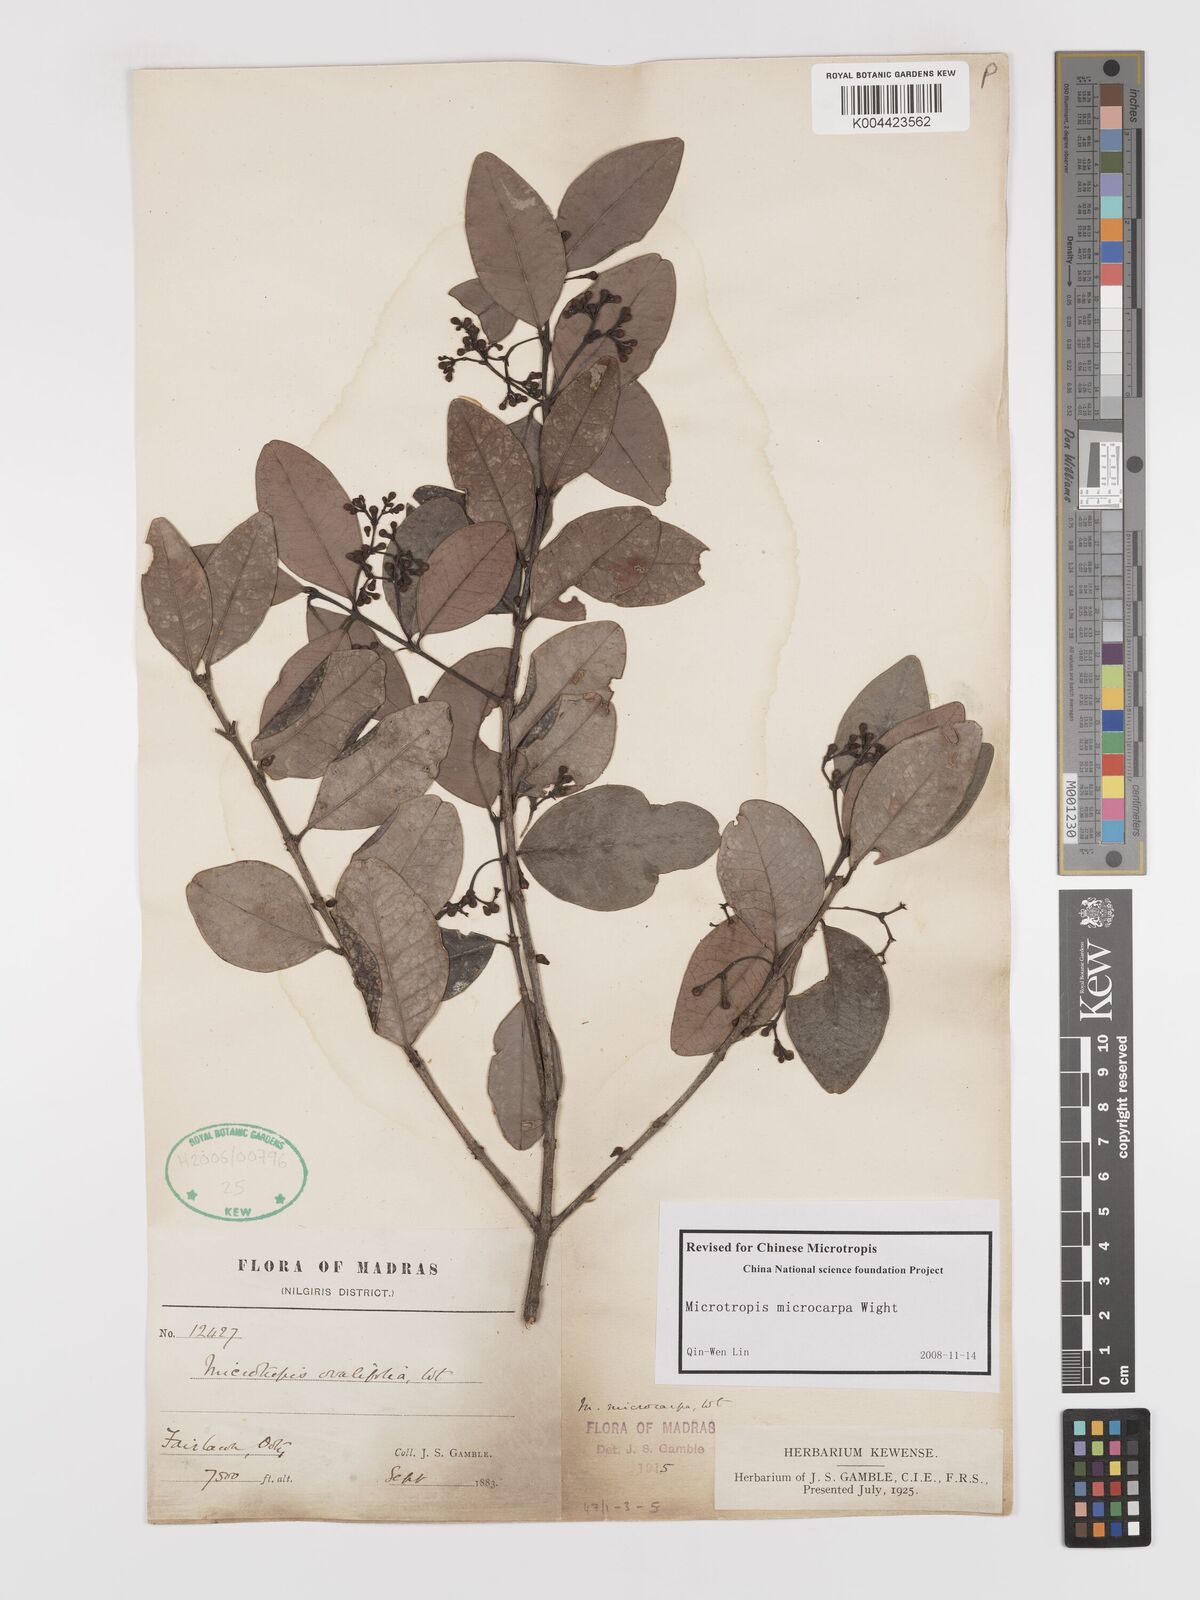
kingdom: Plantae
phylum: Tracheophyta
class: Magnoliopsida
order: Celastrales
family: Celastraceae
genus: Microtropis
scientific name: Microtropis microcarpa
